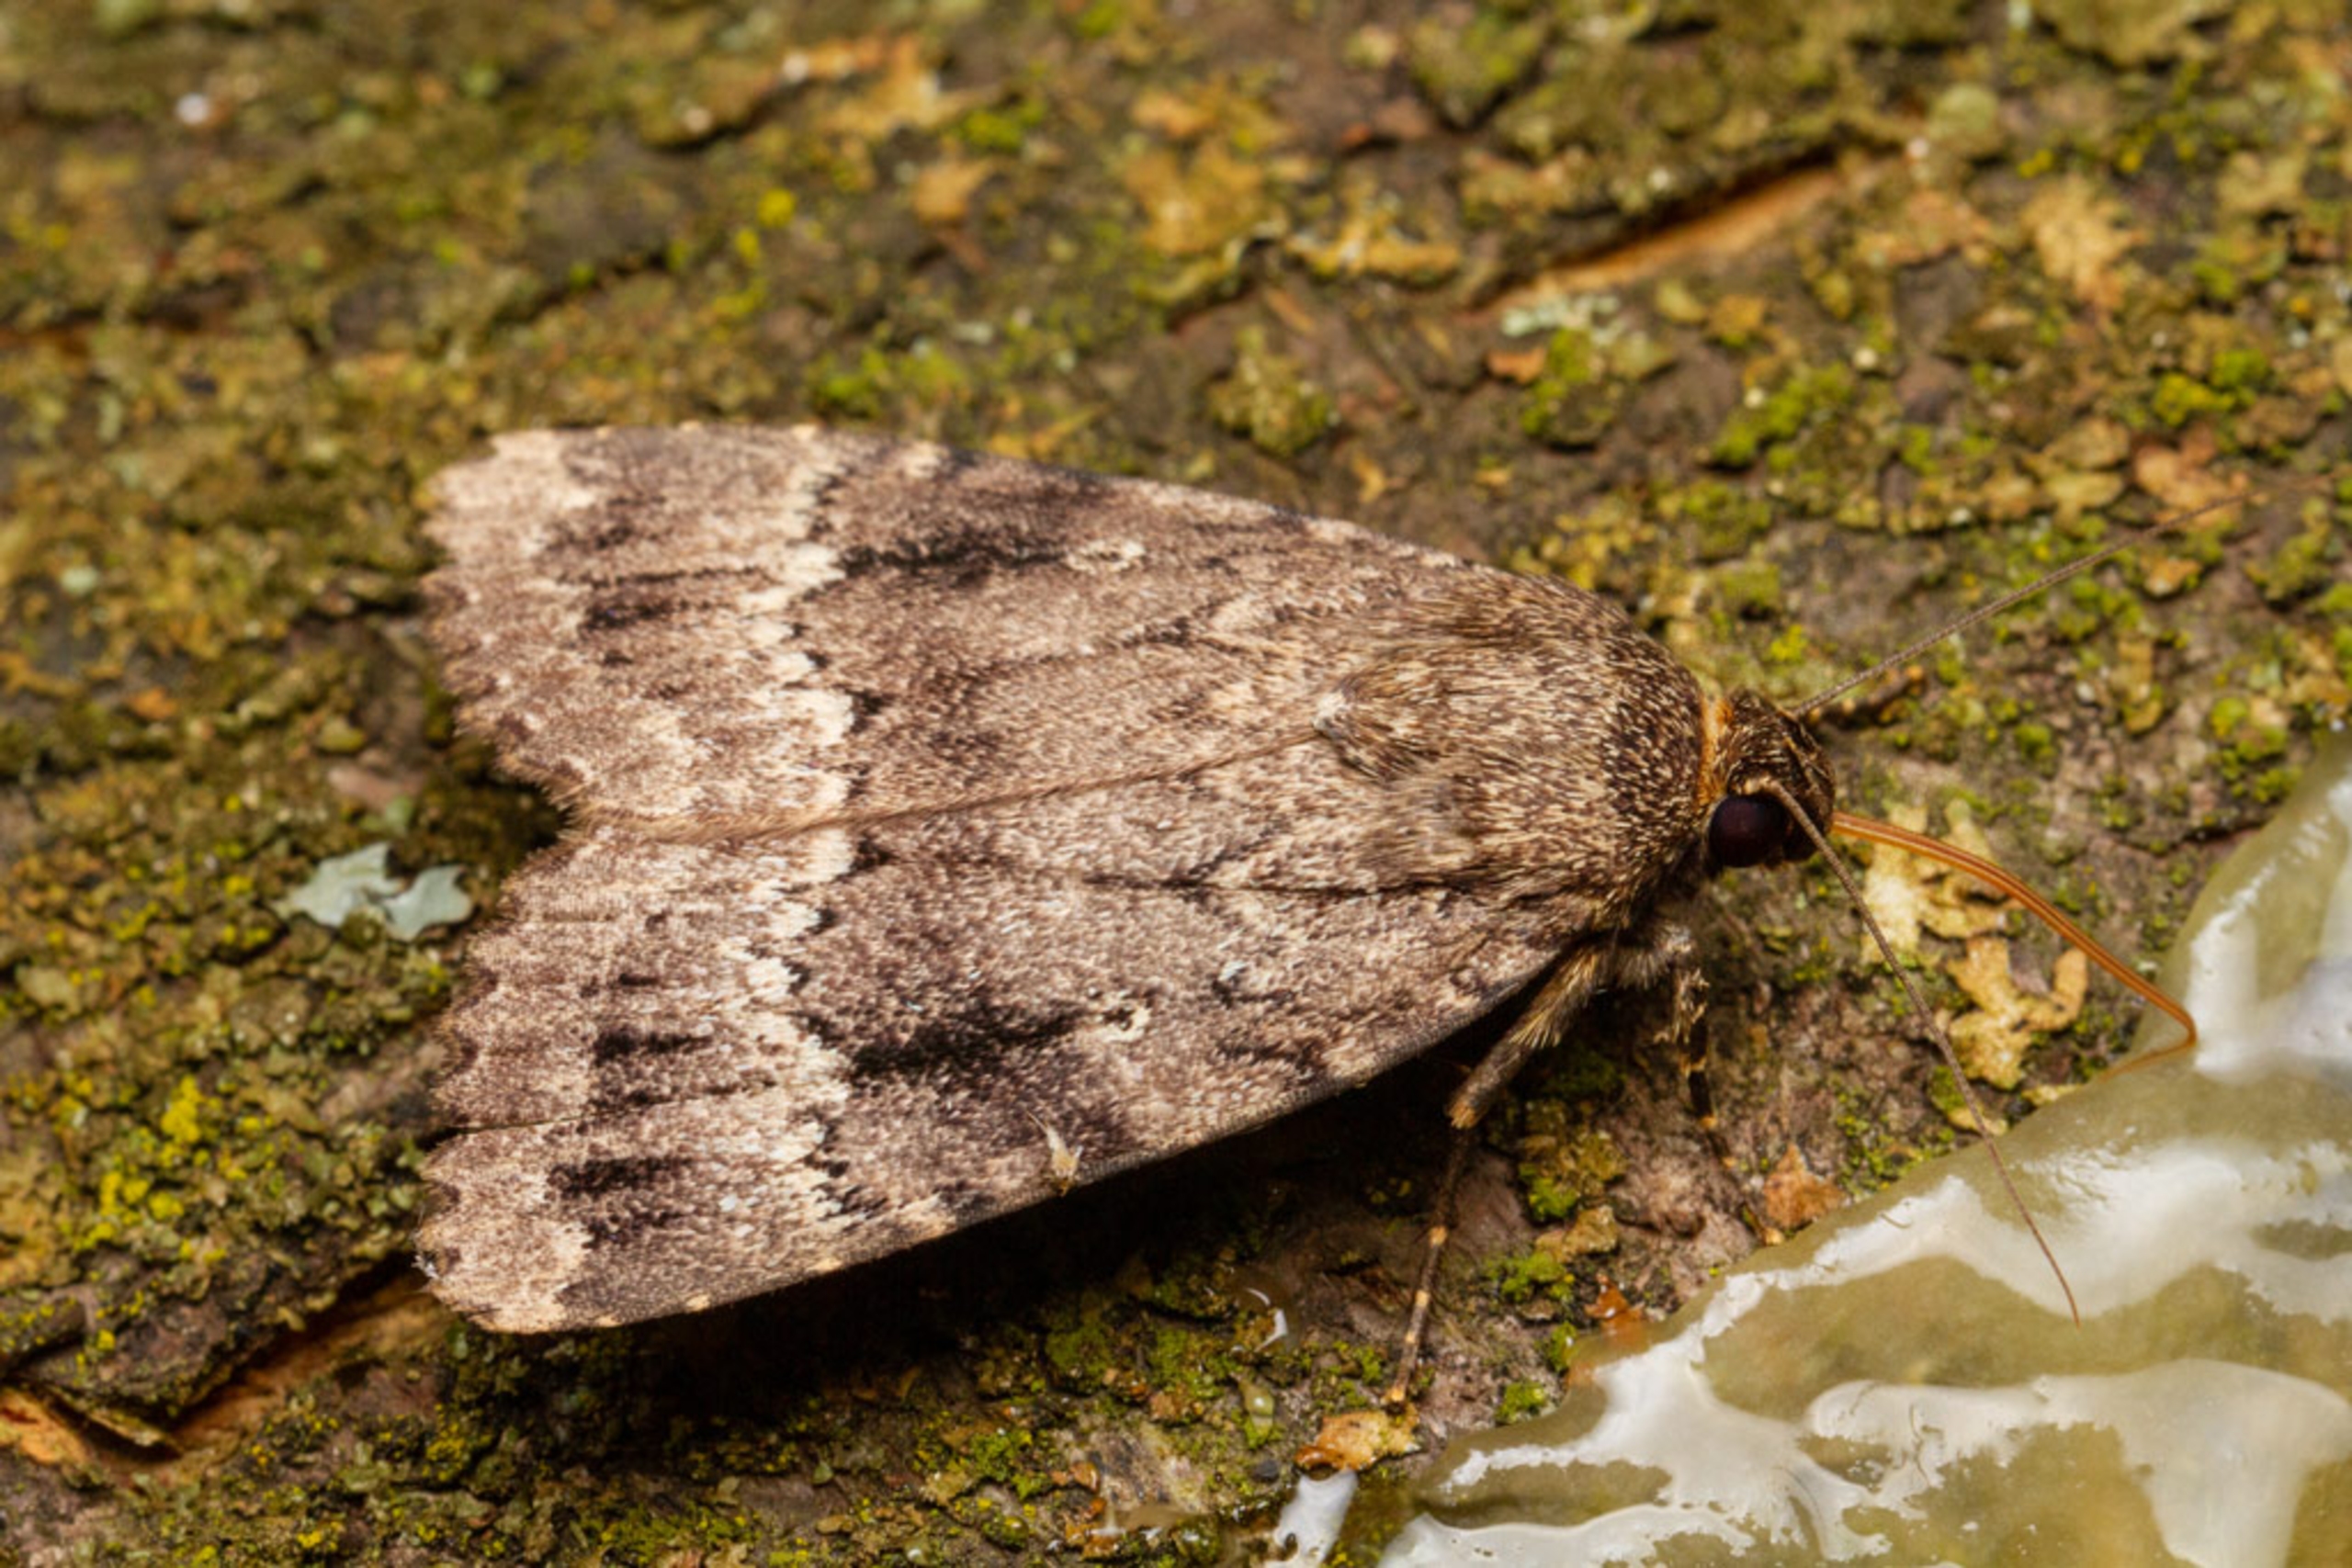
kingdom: Animalia
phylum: Arthropoda
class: Insecta
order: Lepidoptera
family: Noctuidae
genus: Amphipyra
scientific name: Amphipyra pyramidea
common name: Pyramideugle
